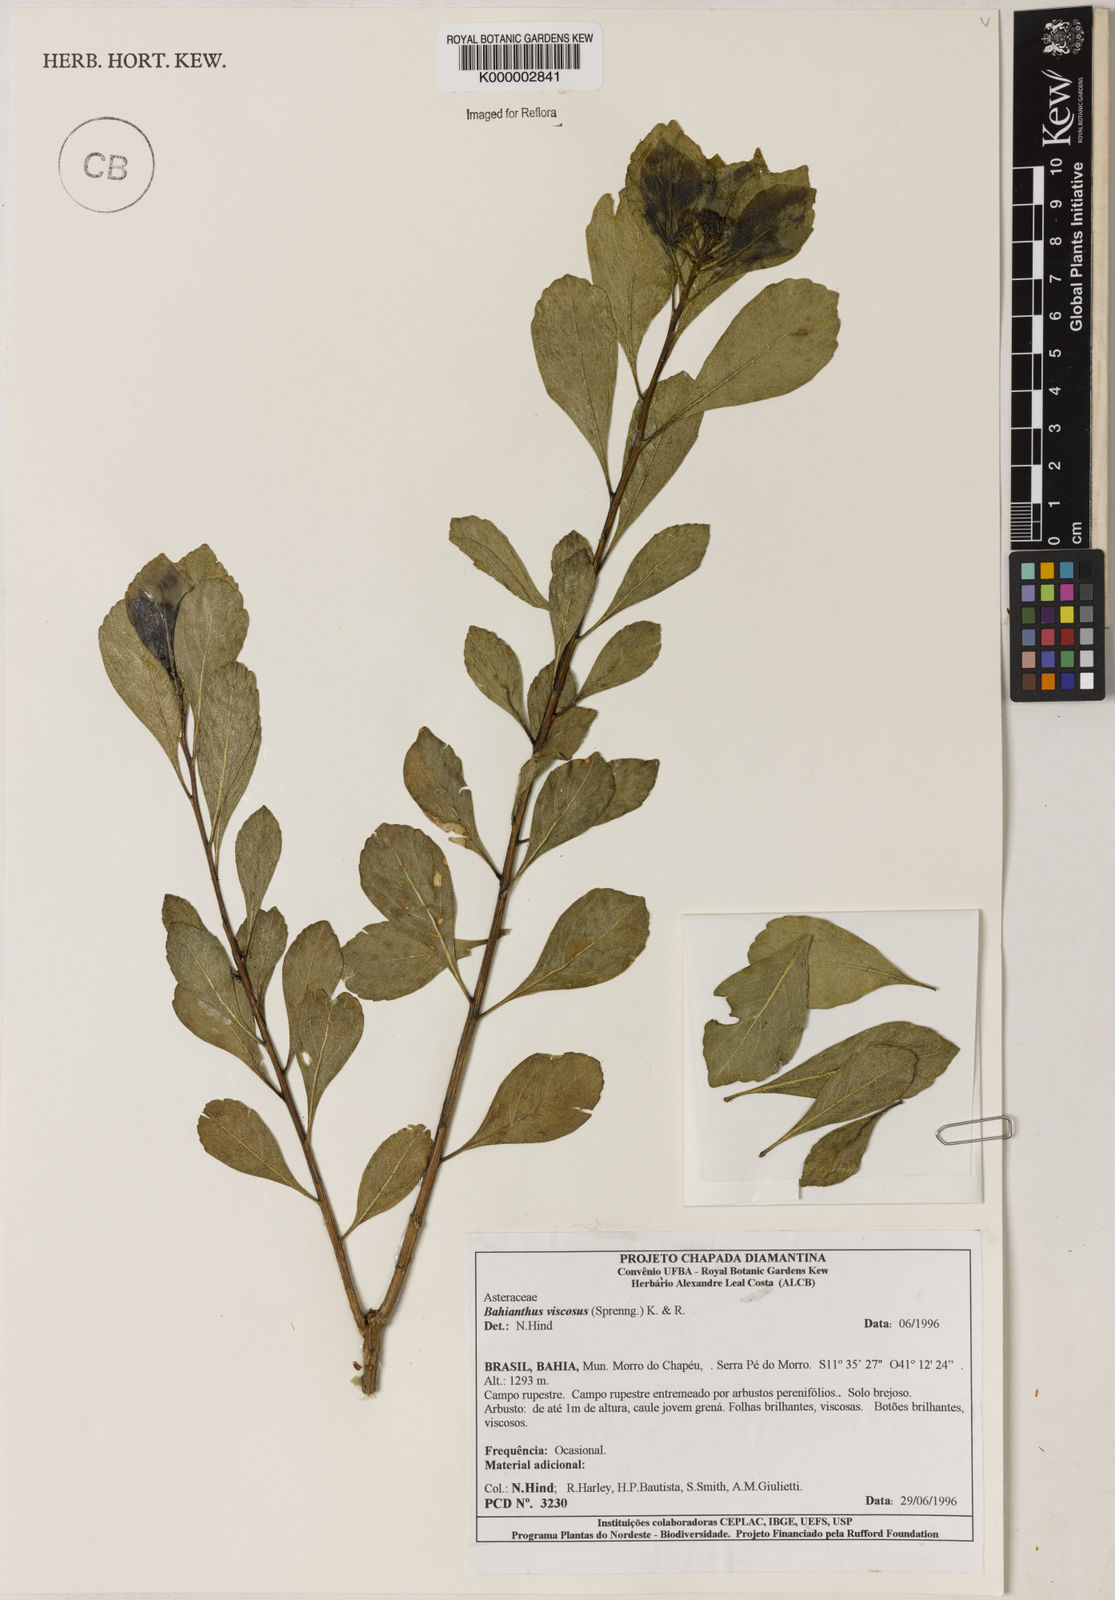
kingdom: Plantae
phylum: Tracheophyta
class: Magnoliopsida
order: Asterales
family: Asteraceae
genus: Bahianthus
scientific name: Bahianthus viscosus
